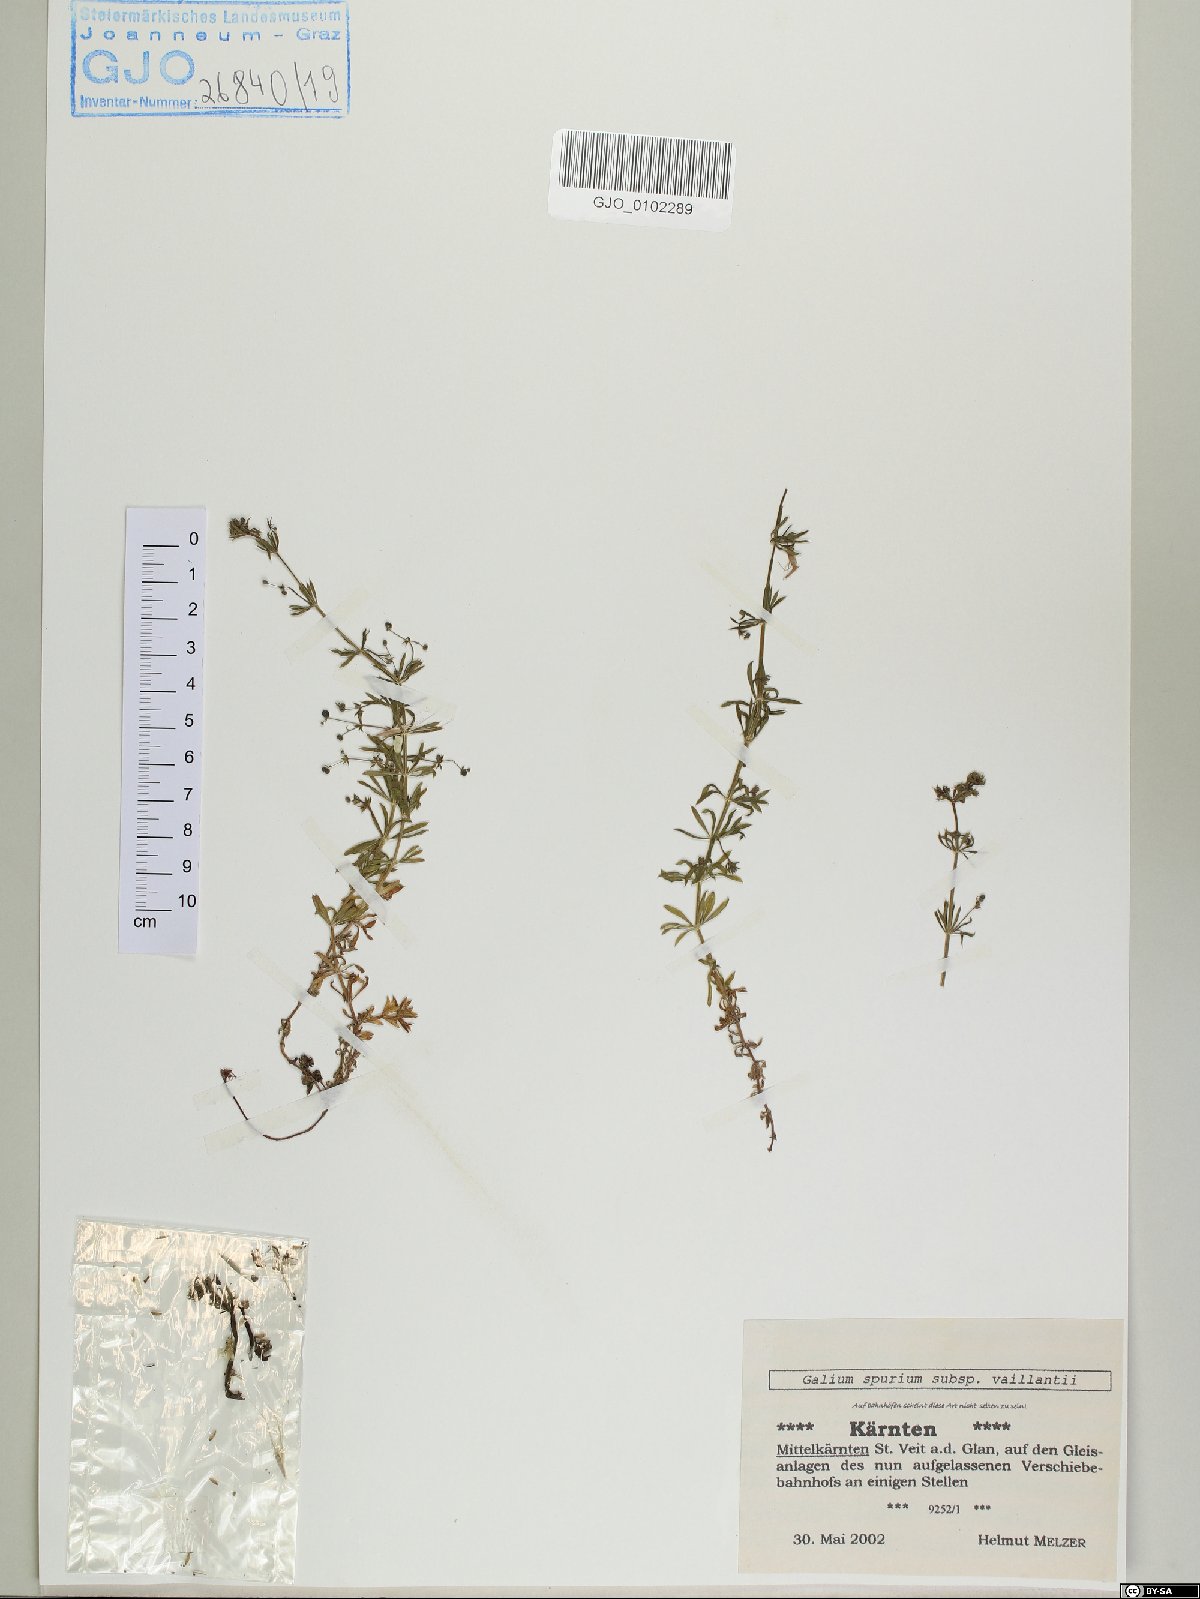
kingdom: Plantae
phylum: Tracheophyta
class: Magnoliopsida
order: Gentianales
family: Rubiaceae
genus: Galium
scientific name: Galium spurium
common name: False cleavers
